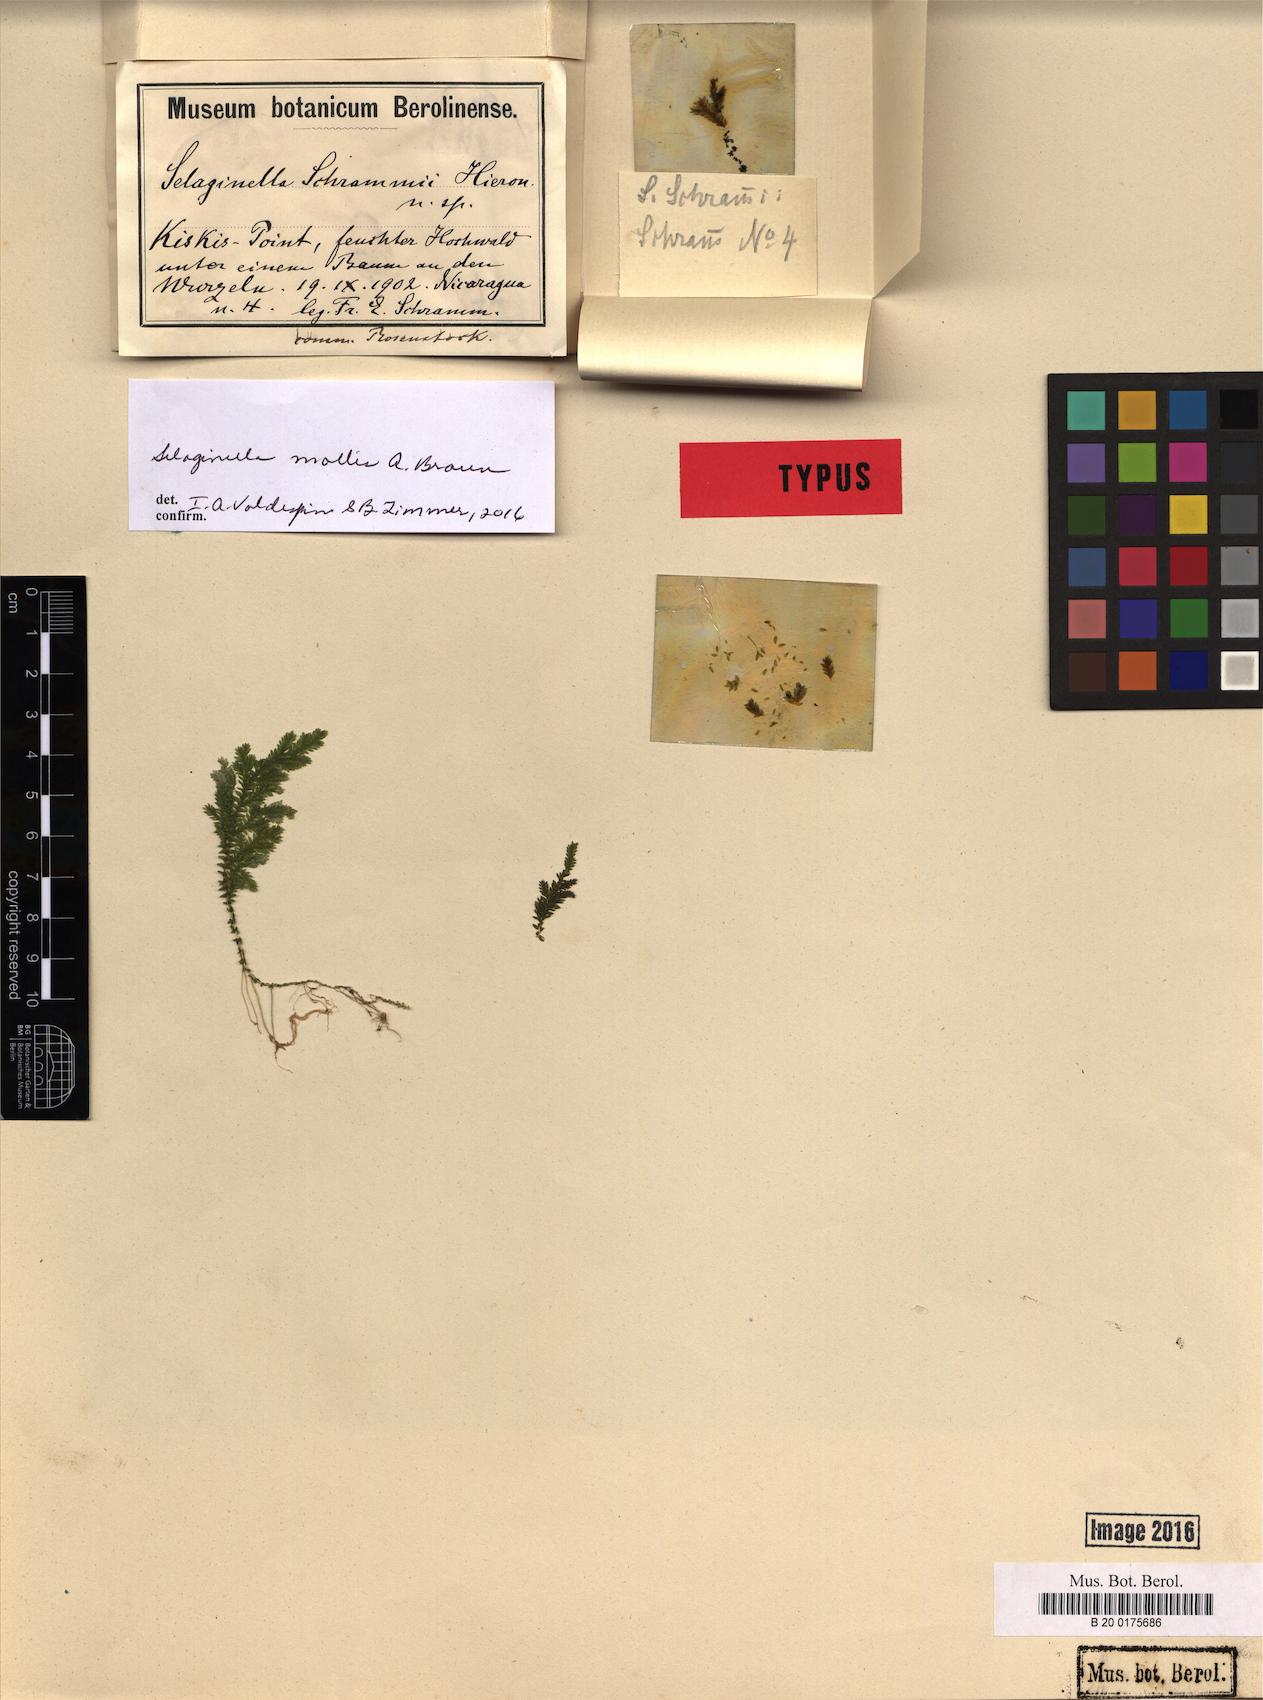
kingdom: Plantae
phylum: Tracheophyta
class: Lycopodiopsida
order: Selaginellales
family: Selaginellaceae
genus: Selaginella
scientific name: Selaginella mollis
